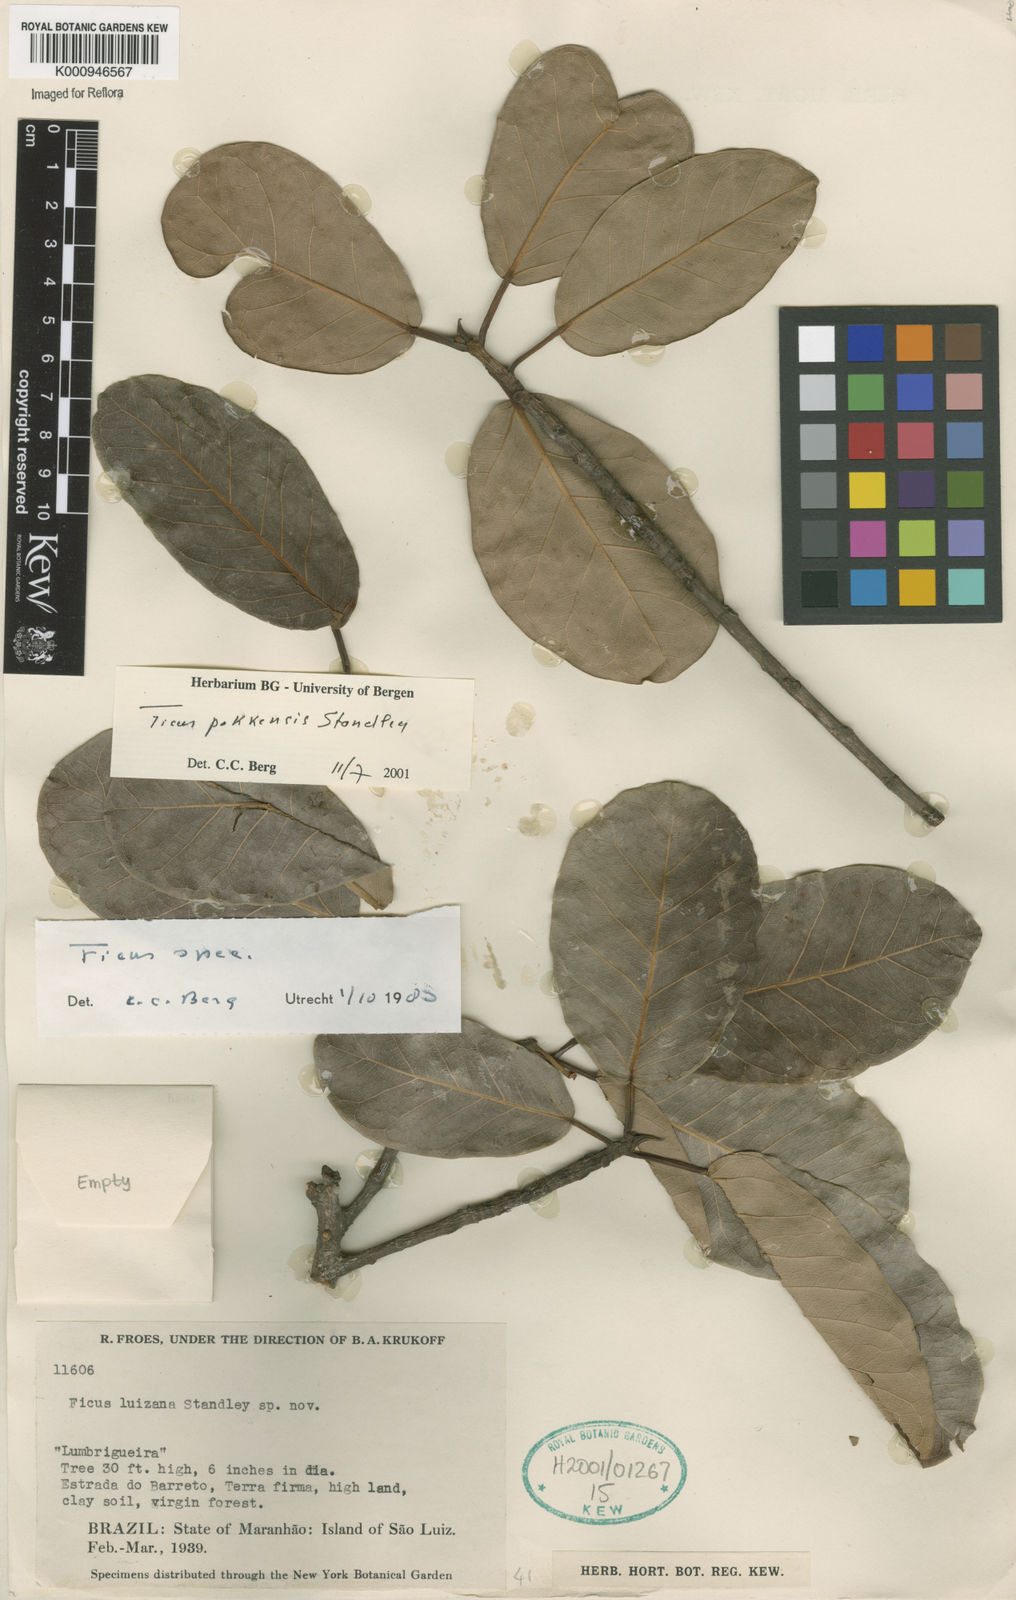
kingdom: Plantae
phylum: Tracheophyta
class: Magnoliopsida
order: Rosales
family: Moraceae
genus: Ficus
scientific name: Ficus pakkensis
